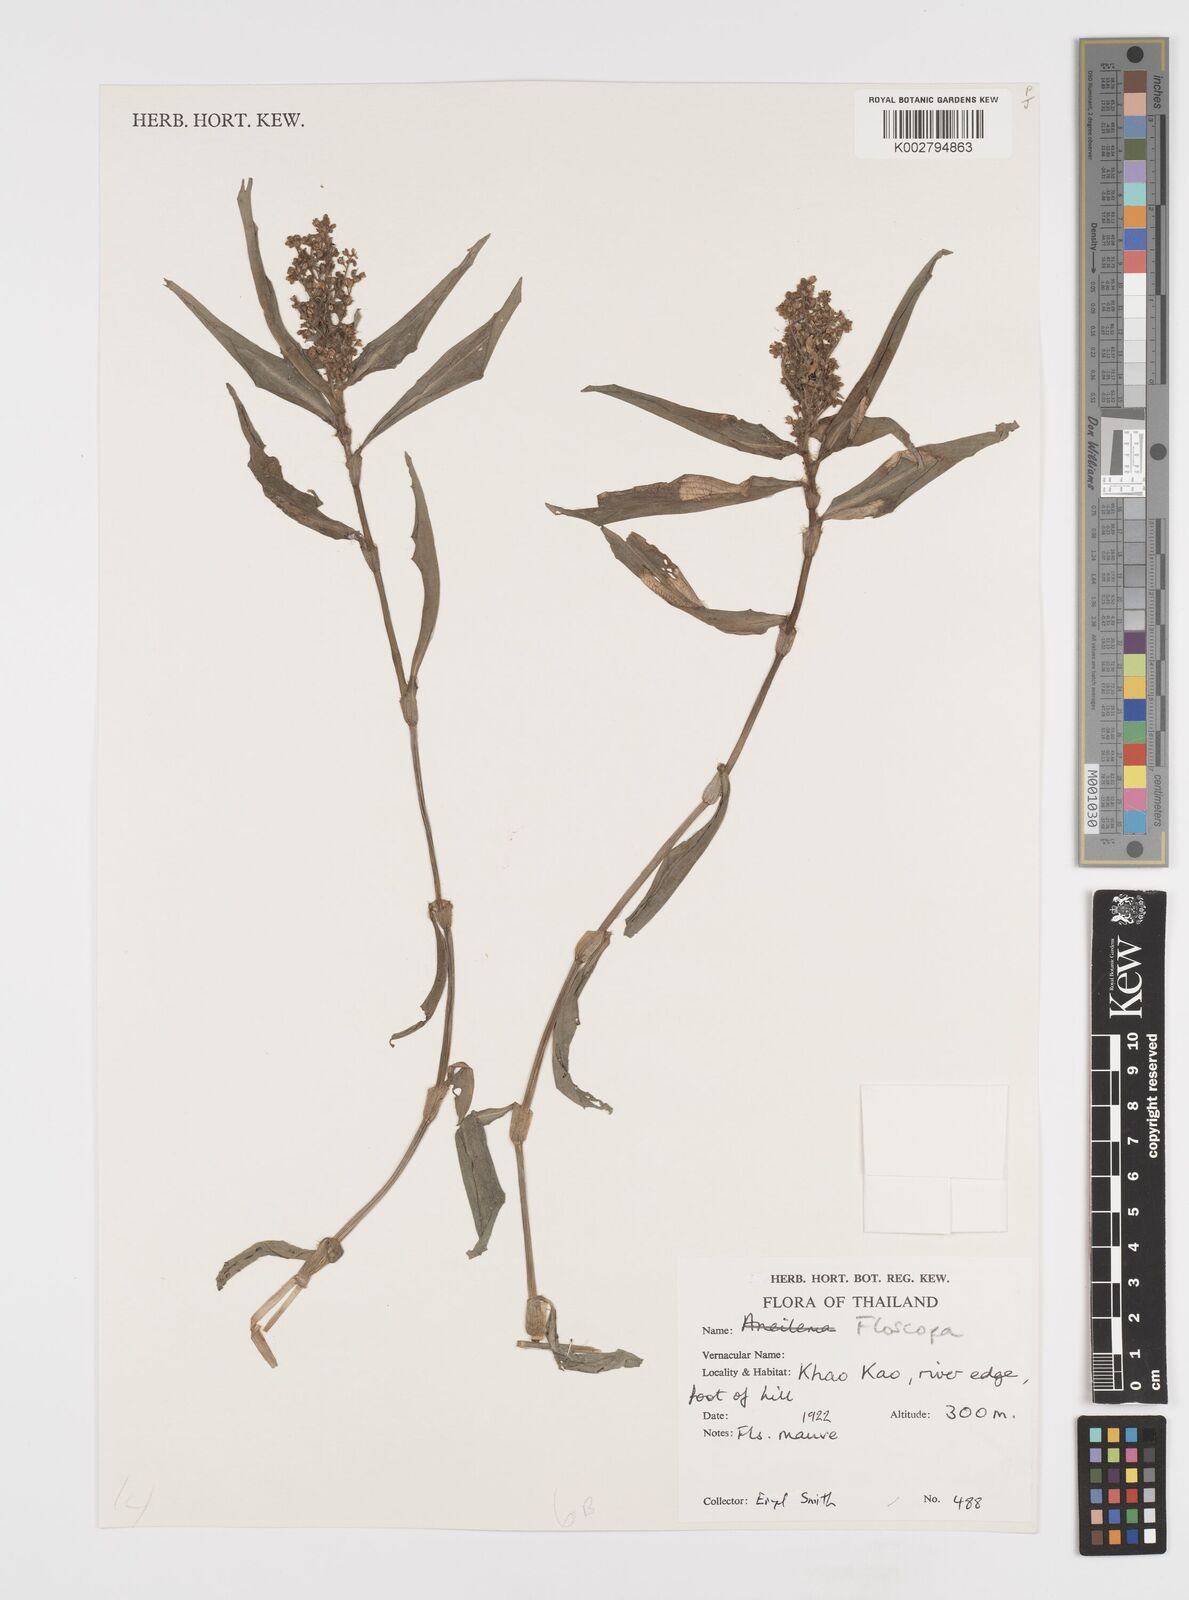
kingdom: Plantae
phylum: Tracheophyta
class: Liliopsida
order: Commelinales
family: Commelinaceae
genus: Floscopa
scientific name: Floscopa
